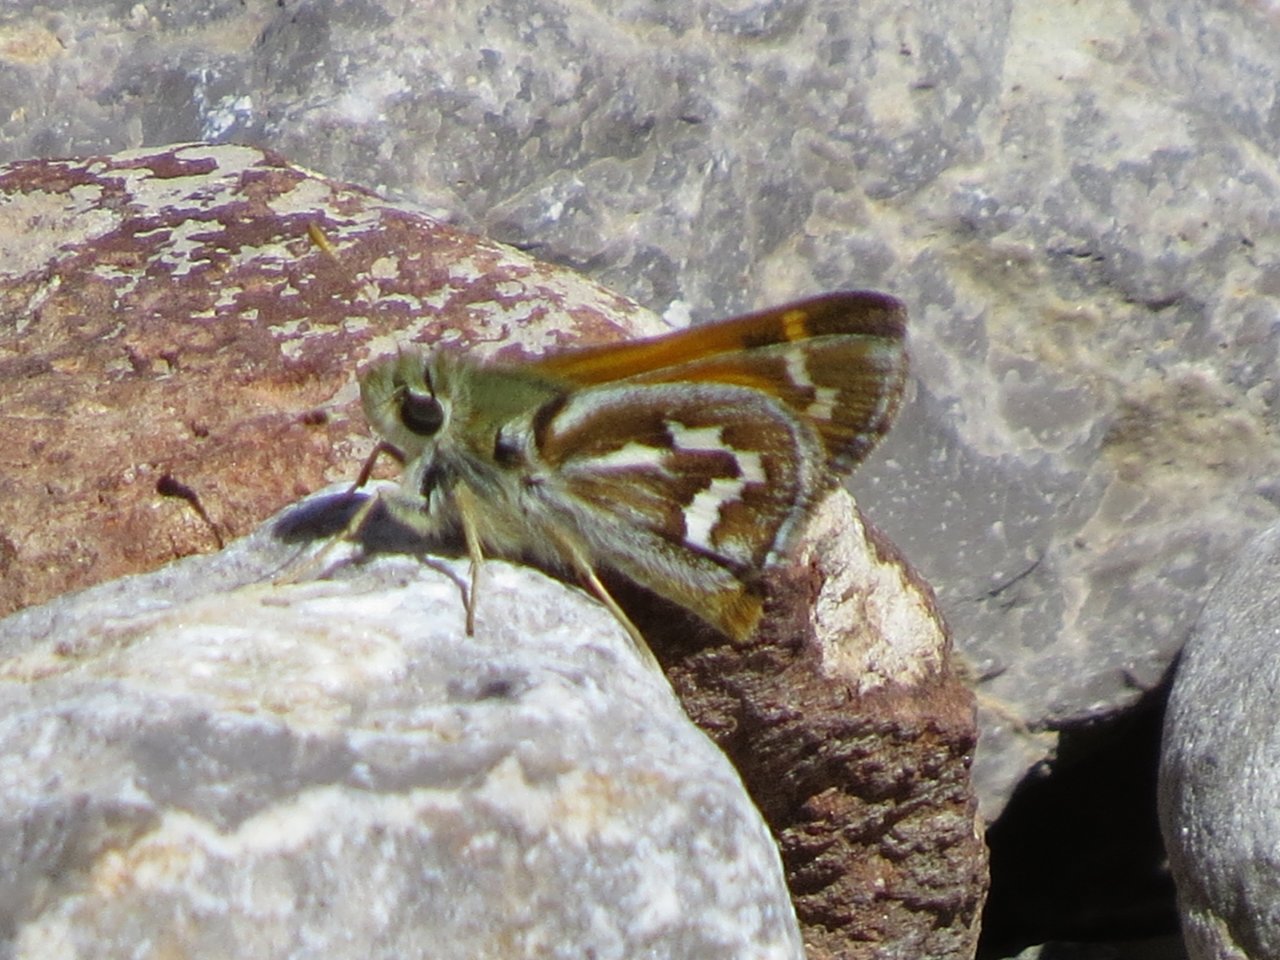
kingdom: Animalia
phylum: Arthropoda
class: Insecta
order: Lepidoptera
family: Hesperiidae
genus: Stinga
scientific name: Stinga morrisoni
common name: Morrison's Skipper
